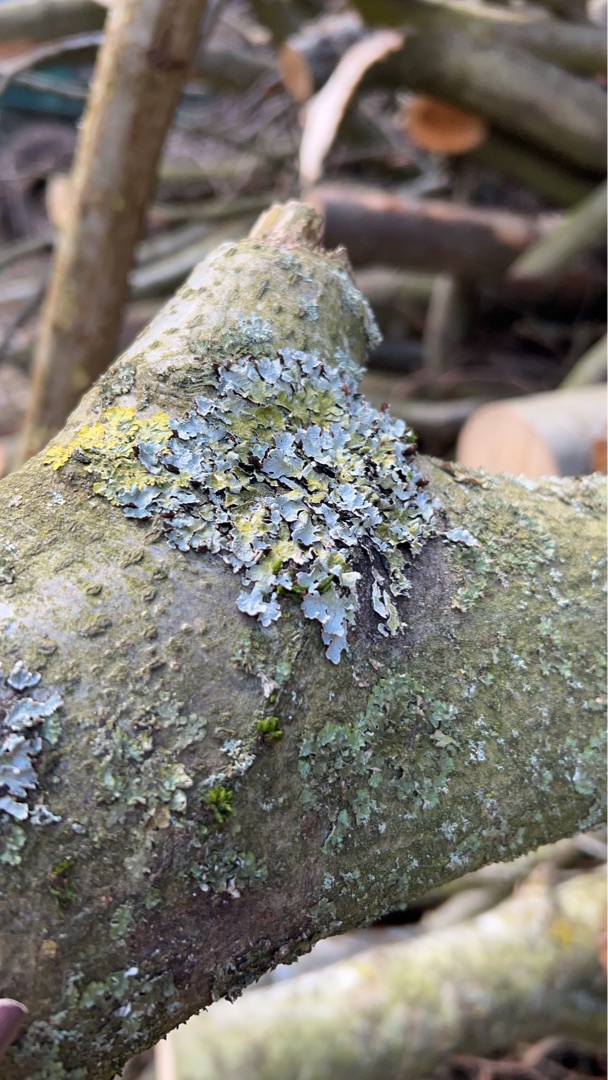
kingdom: Fungi
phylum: Ascomycota
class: Lecanoromycetes
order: Lecanorales
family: Parmeliaceae
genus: Parmelia
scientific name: Parmelia sulcata
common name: Rynket skållav
